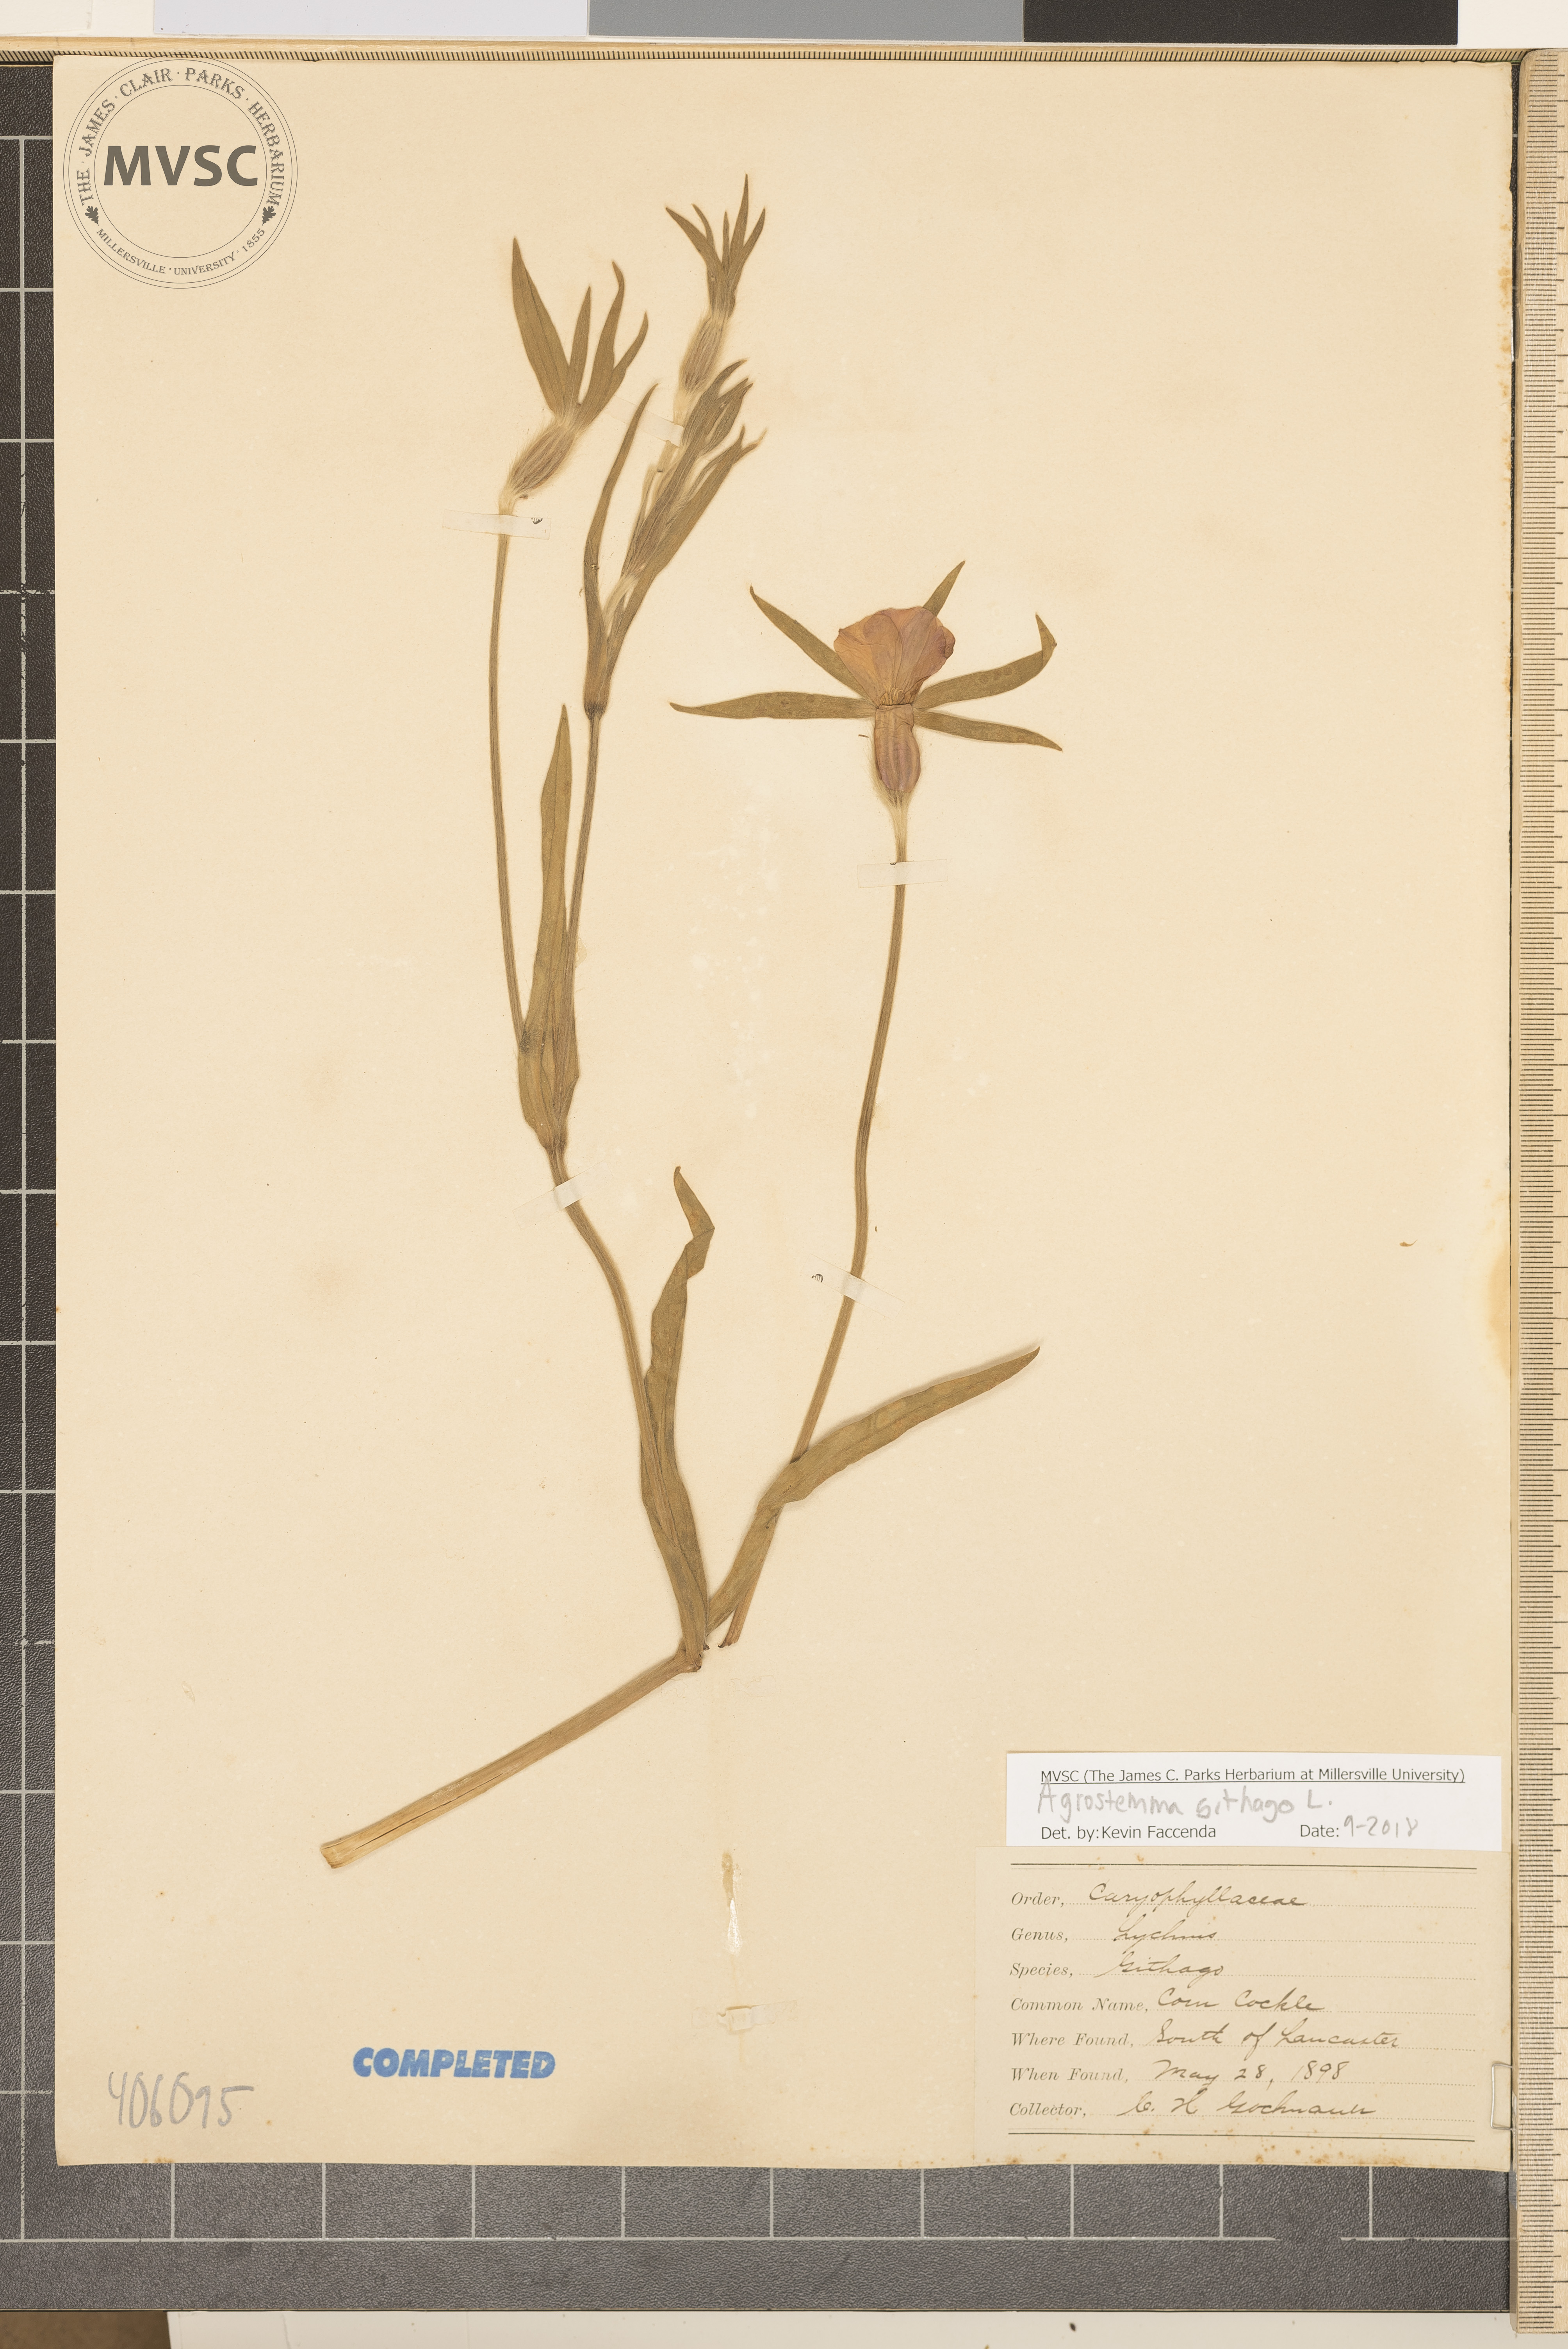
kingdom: Plantae
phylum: Tracheophyta
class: Magnoliopsida
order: Caryophyllales
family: Caryophyllaceae
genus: Agrostemma
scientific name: Agrostemma githago
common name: Common corncockle
